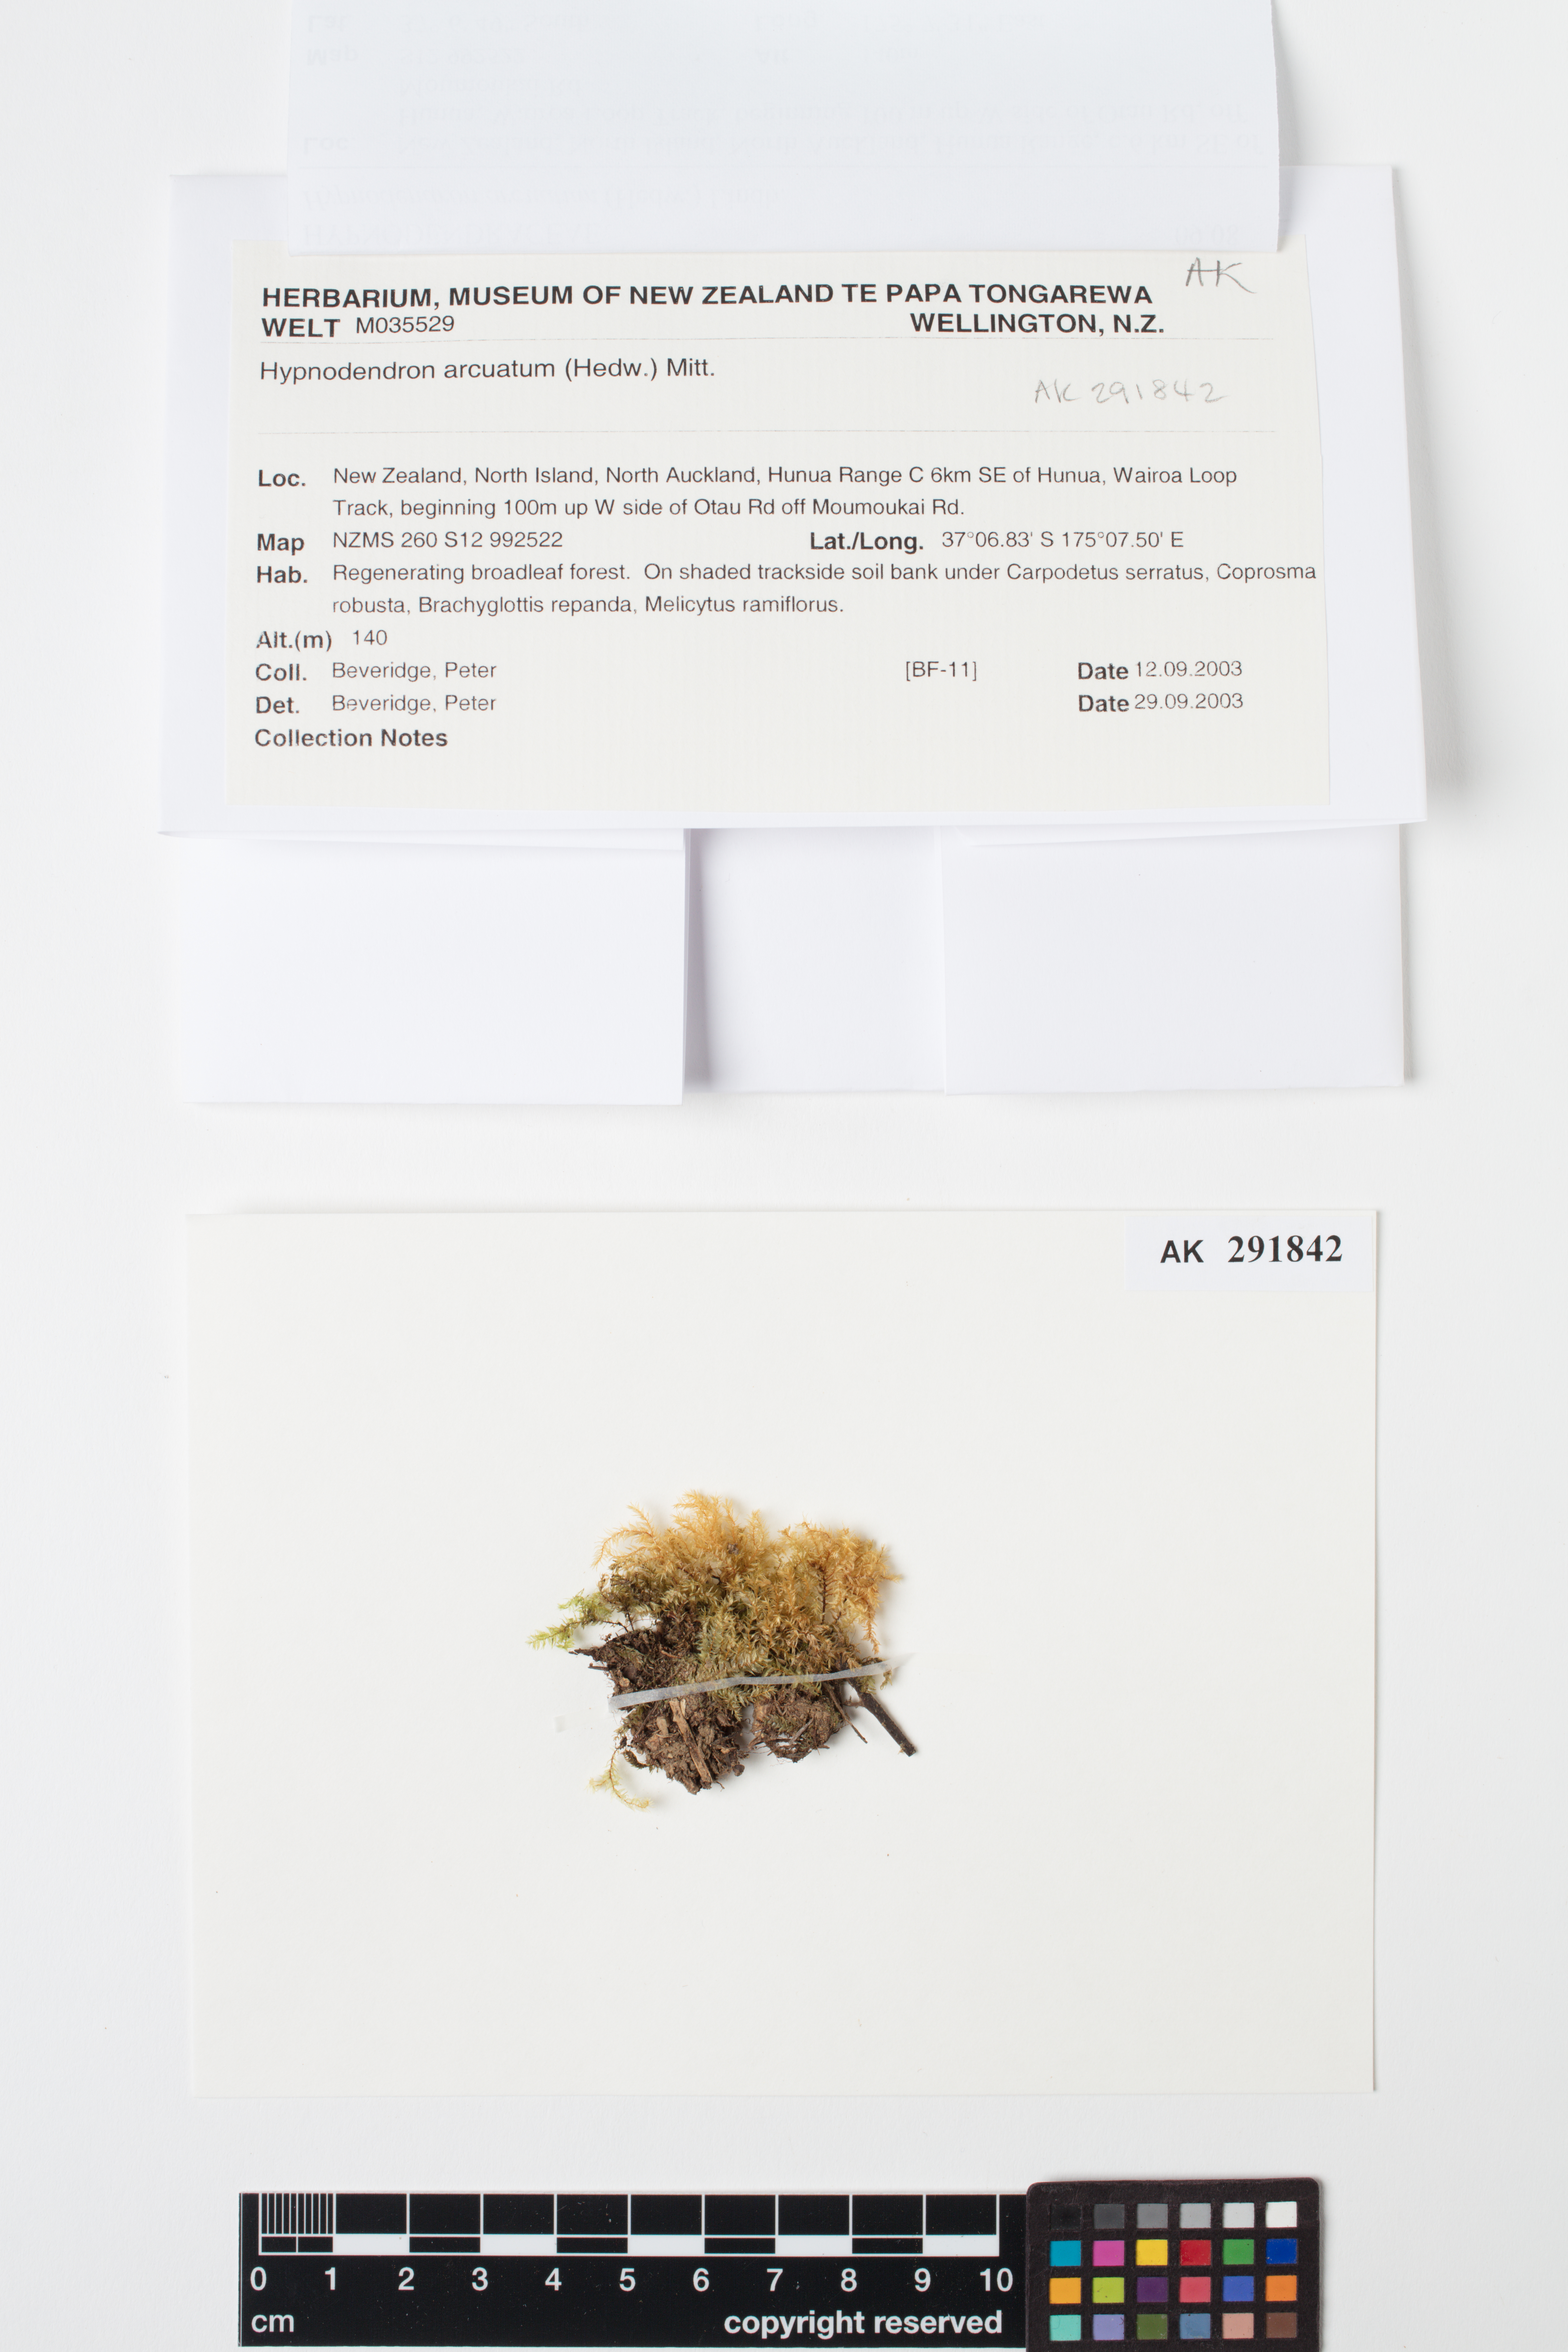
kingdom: Plantae
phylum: Bryophyta
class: Bryopsida
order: Hypnodendrales
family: Spiridentaceae
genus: Hypnodendron
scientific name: Hypnodendron arcuatum
